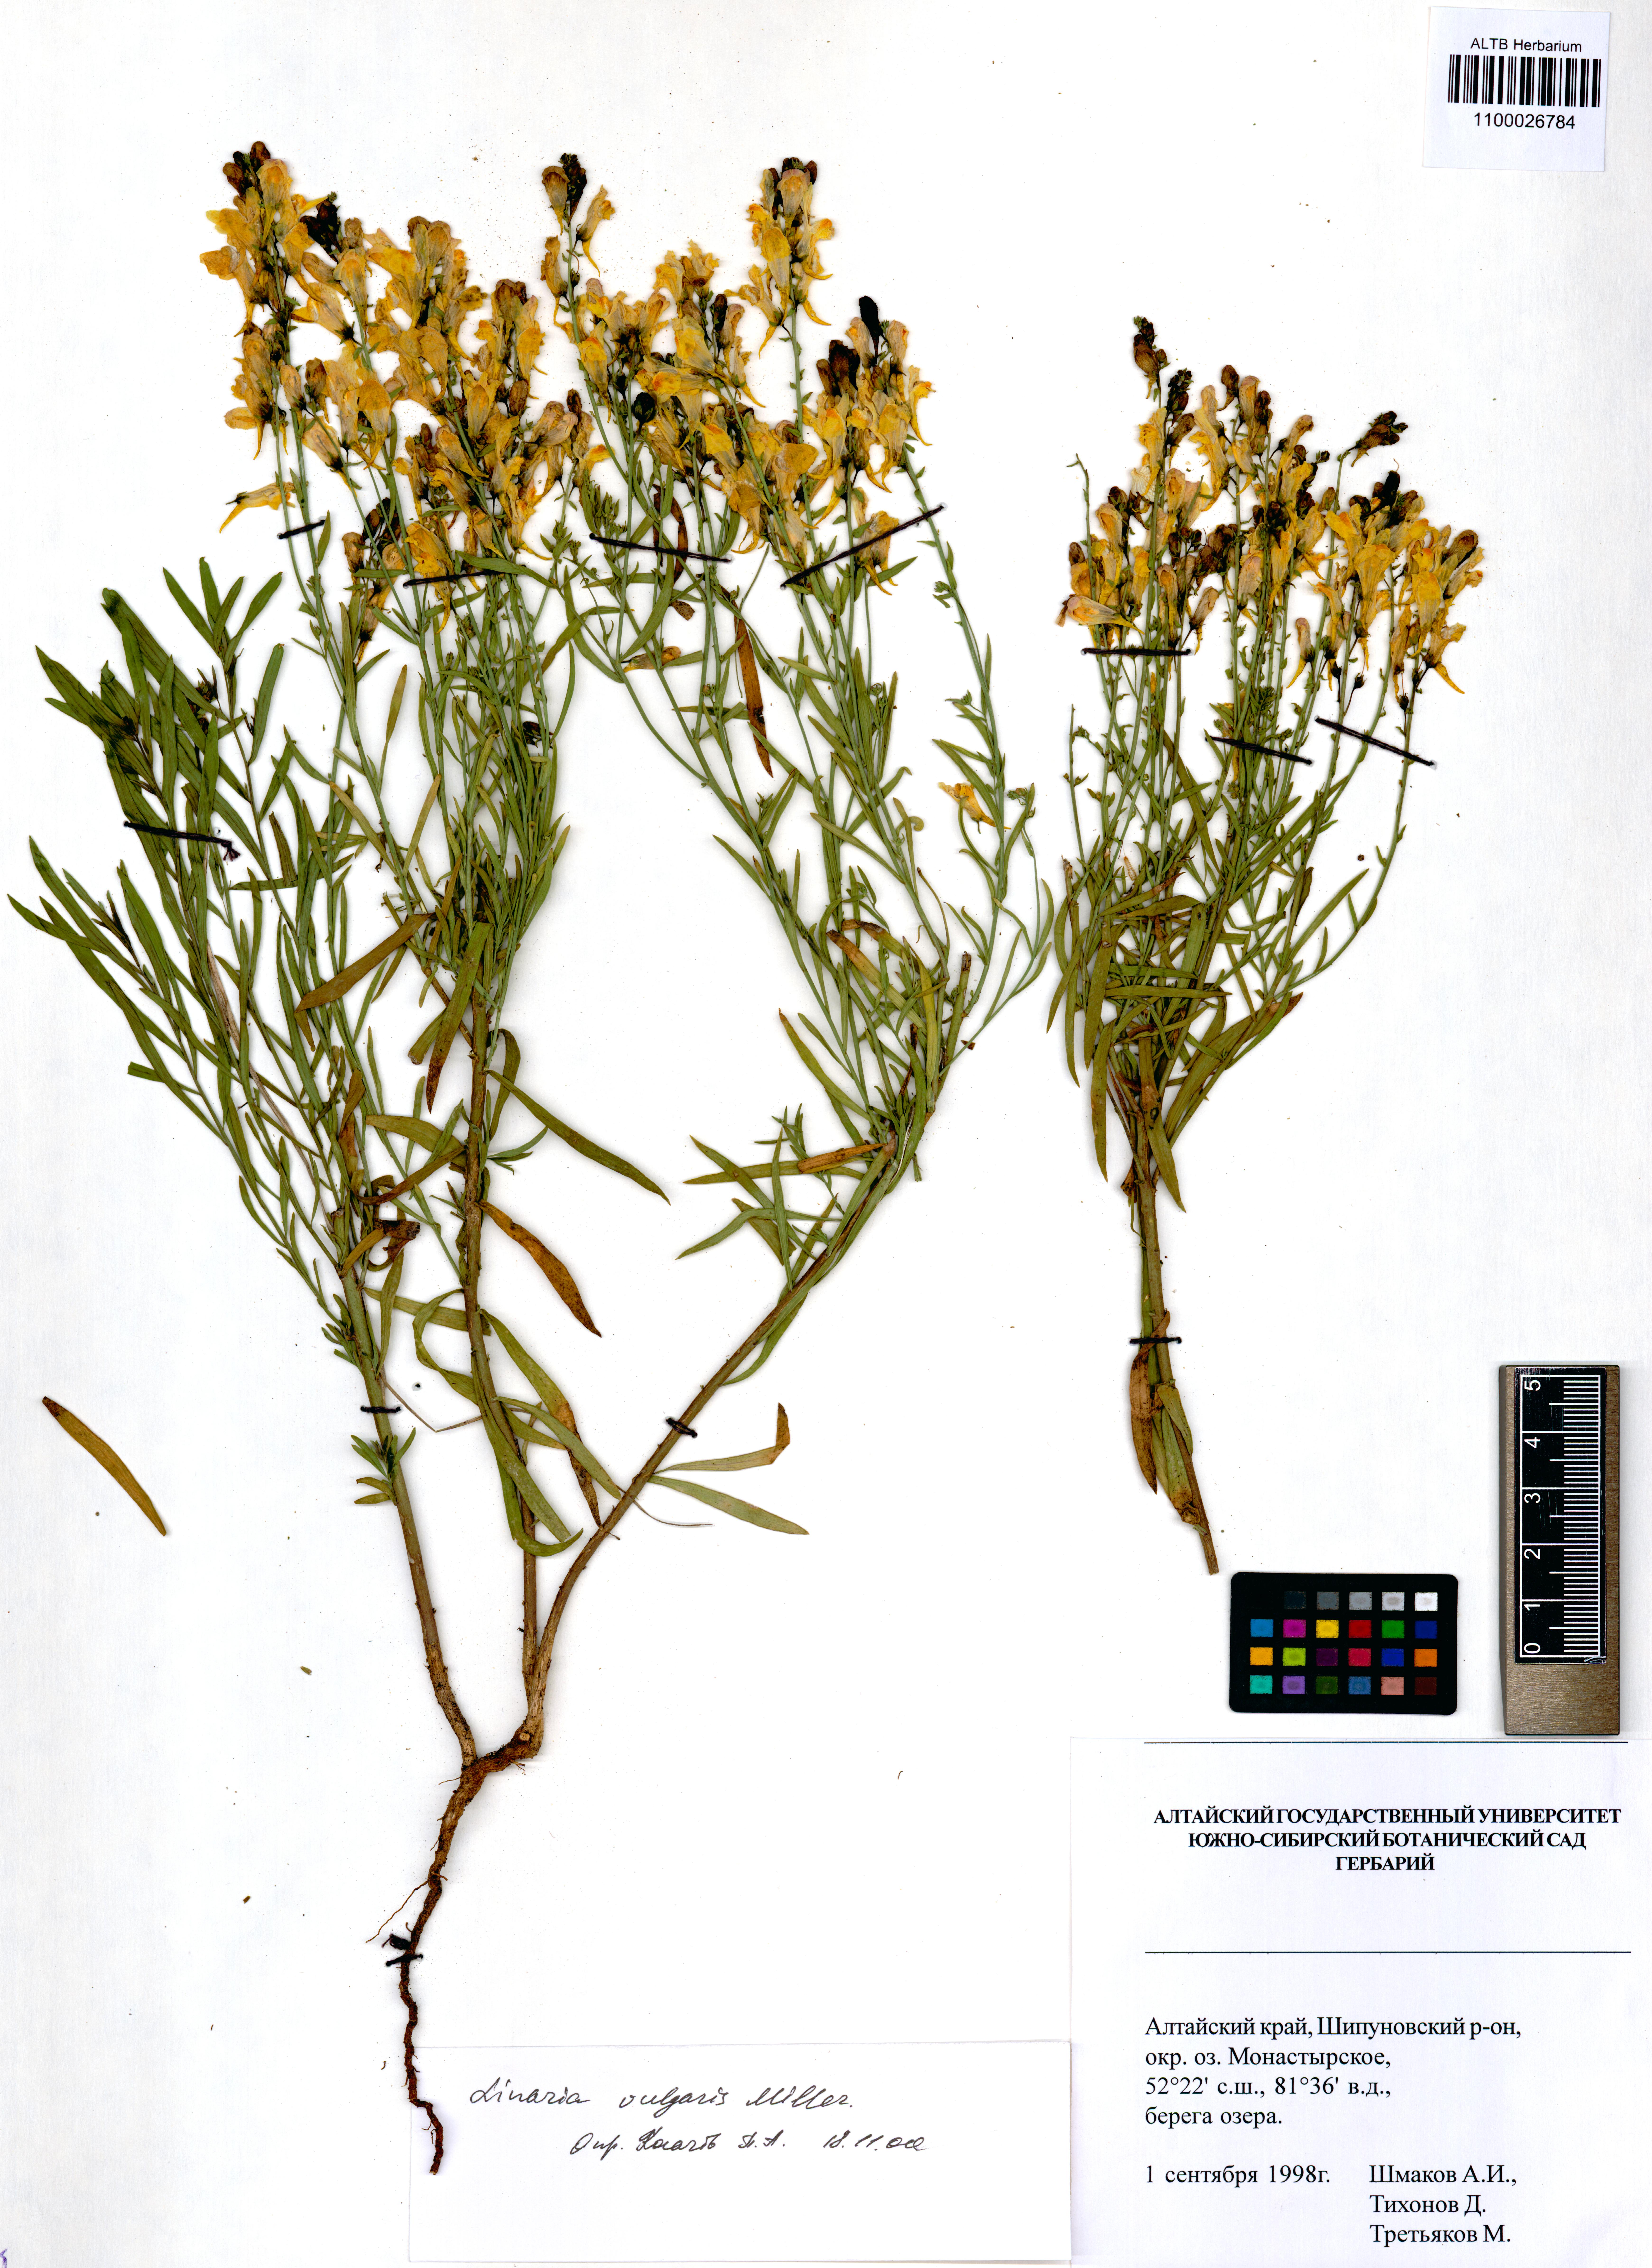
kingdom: Plantae
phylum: Tracheophyta
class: Magnoliopsida
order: Lamiales
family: Plantaginaceae
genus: Linaria
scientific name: Linaria vulgaris
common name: Butter and eggs
